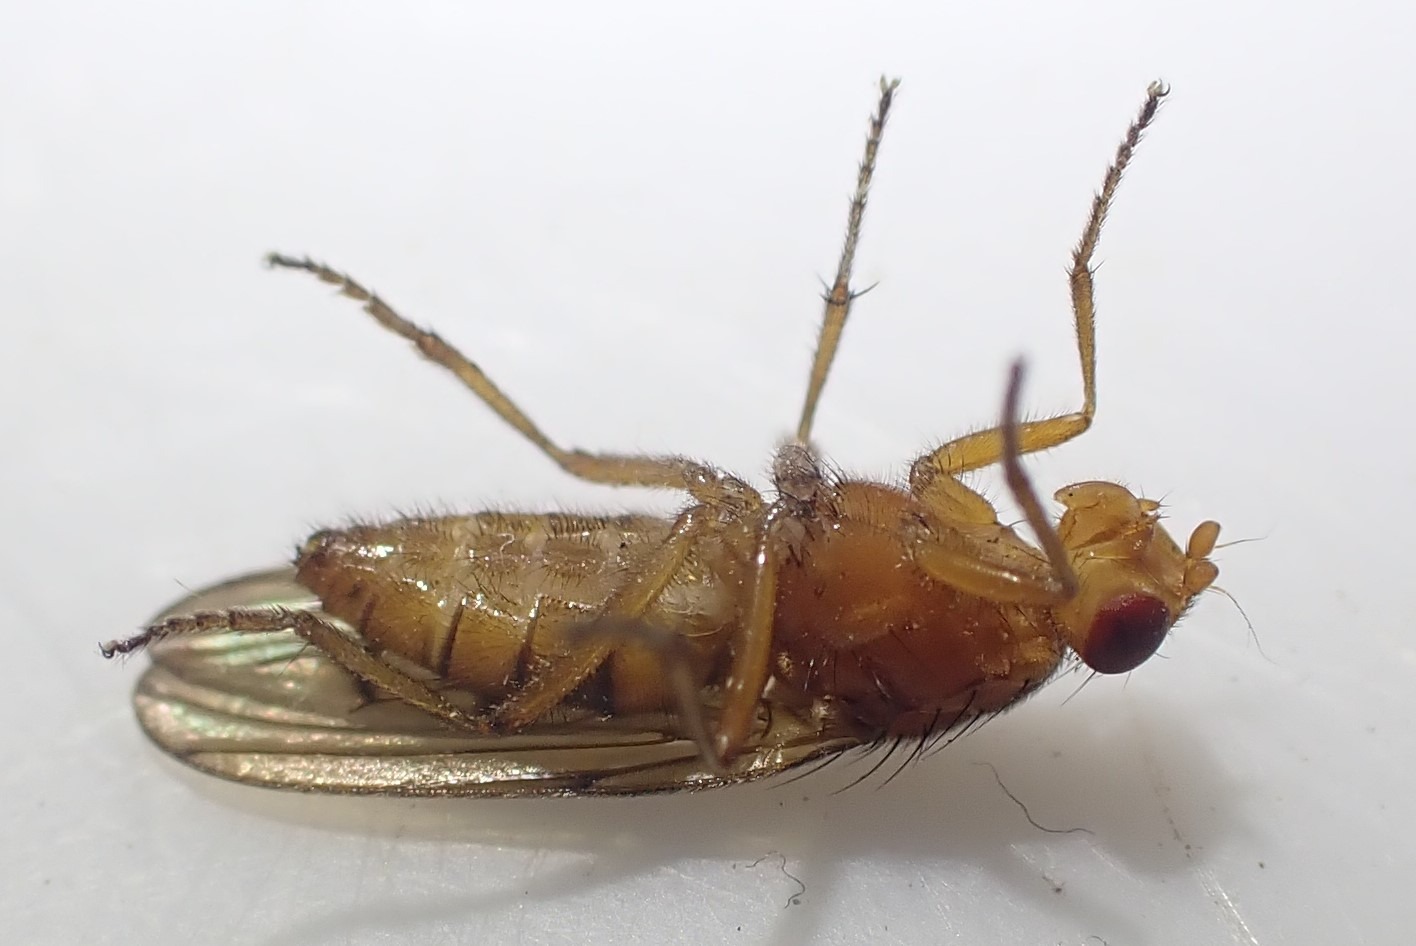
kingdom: Animalia
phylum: Arthropoda
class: Insecta
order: Diptera
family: Dryomyzidae
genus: Dryomyza
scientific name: Dryomyza anilis
